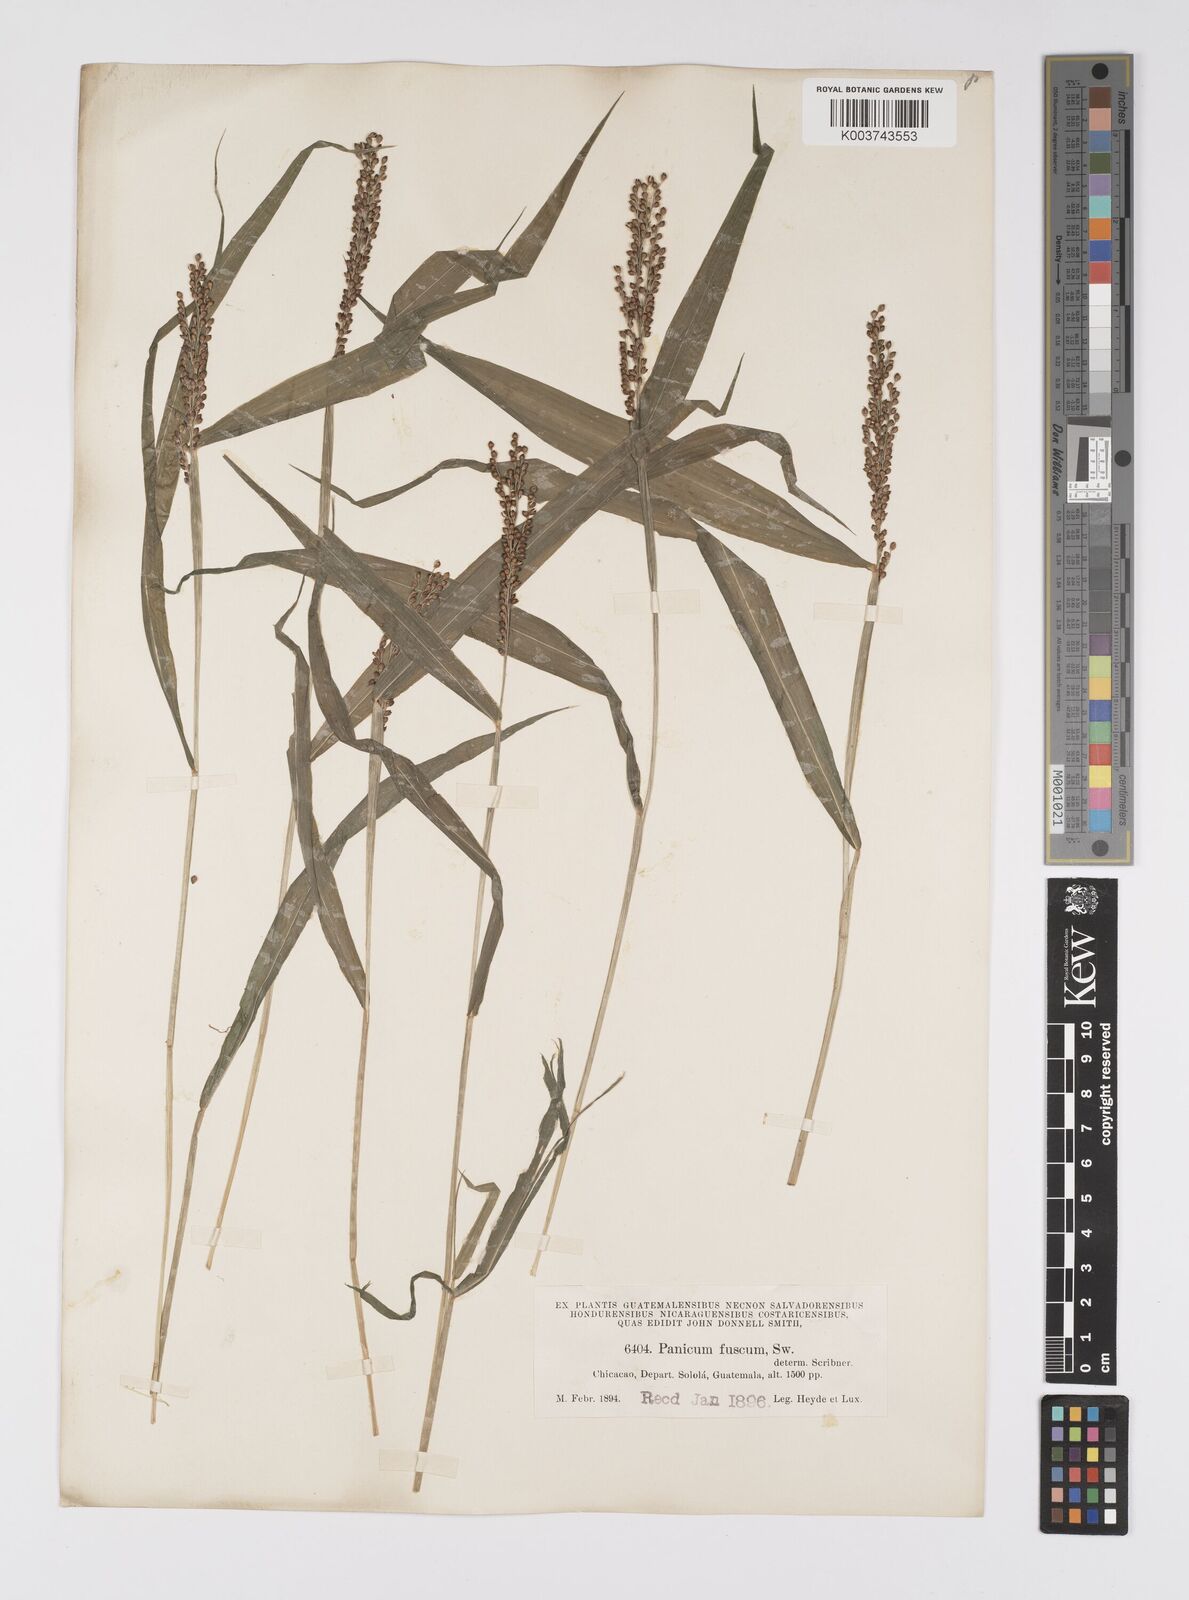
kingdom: Plantae
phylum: Tracheophyta
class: Liliopsida
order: Poales
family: Poaceae
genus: Urochloa
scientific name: Urochloa fusca
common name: Browntop signal grass
